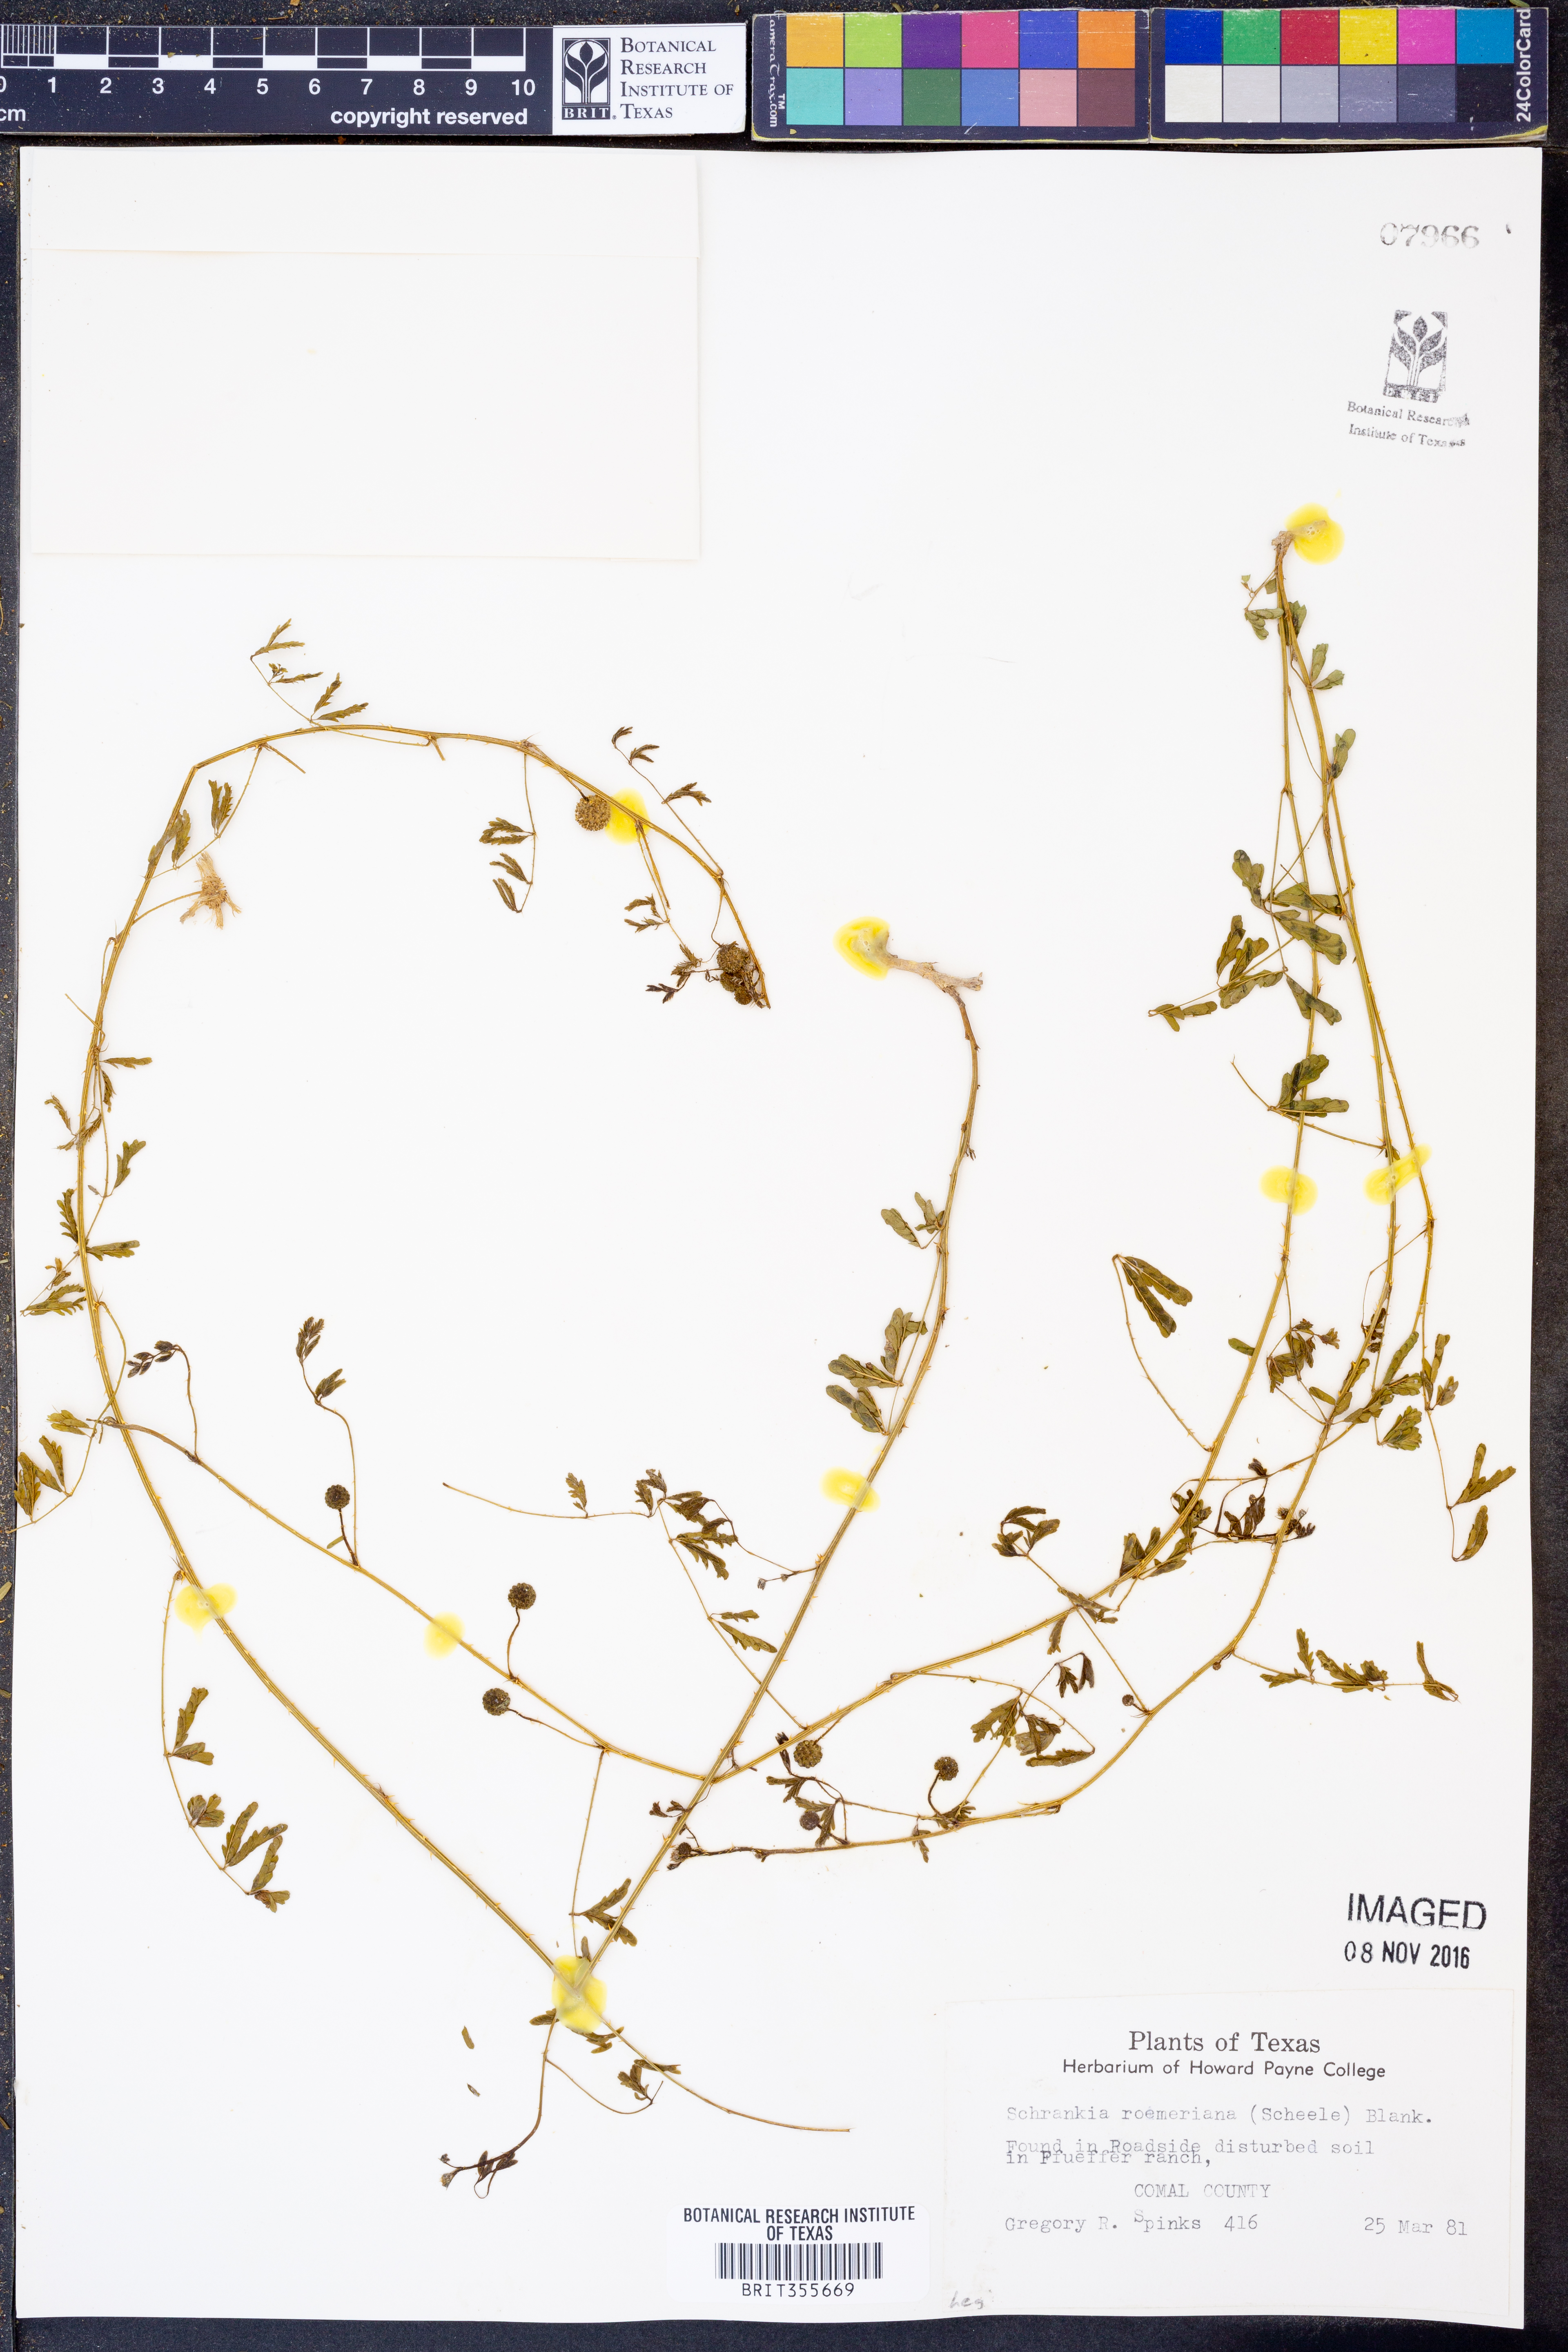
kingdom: Plantae
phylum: Tracheophyta
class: Magnoliopsida
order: Fabales
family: Fabaceae
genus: Mimosa
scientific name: Mimosa quadrivalvis
